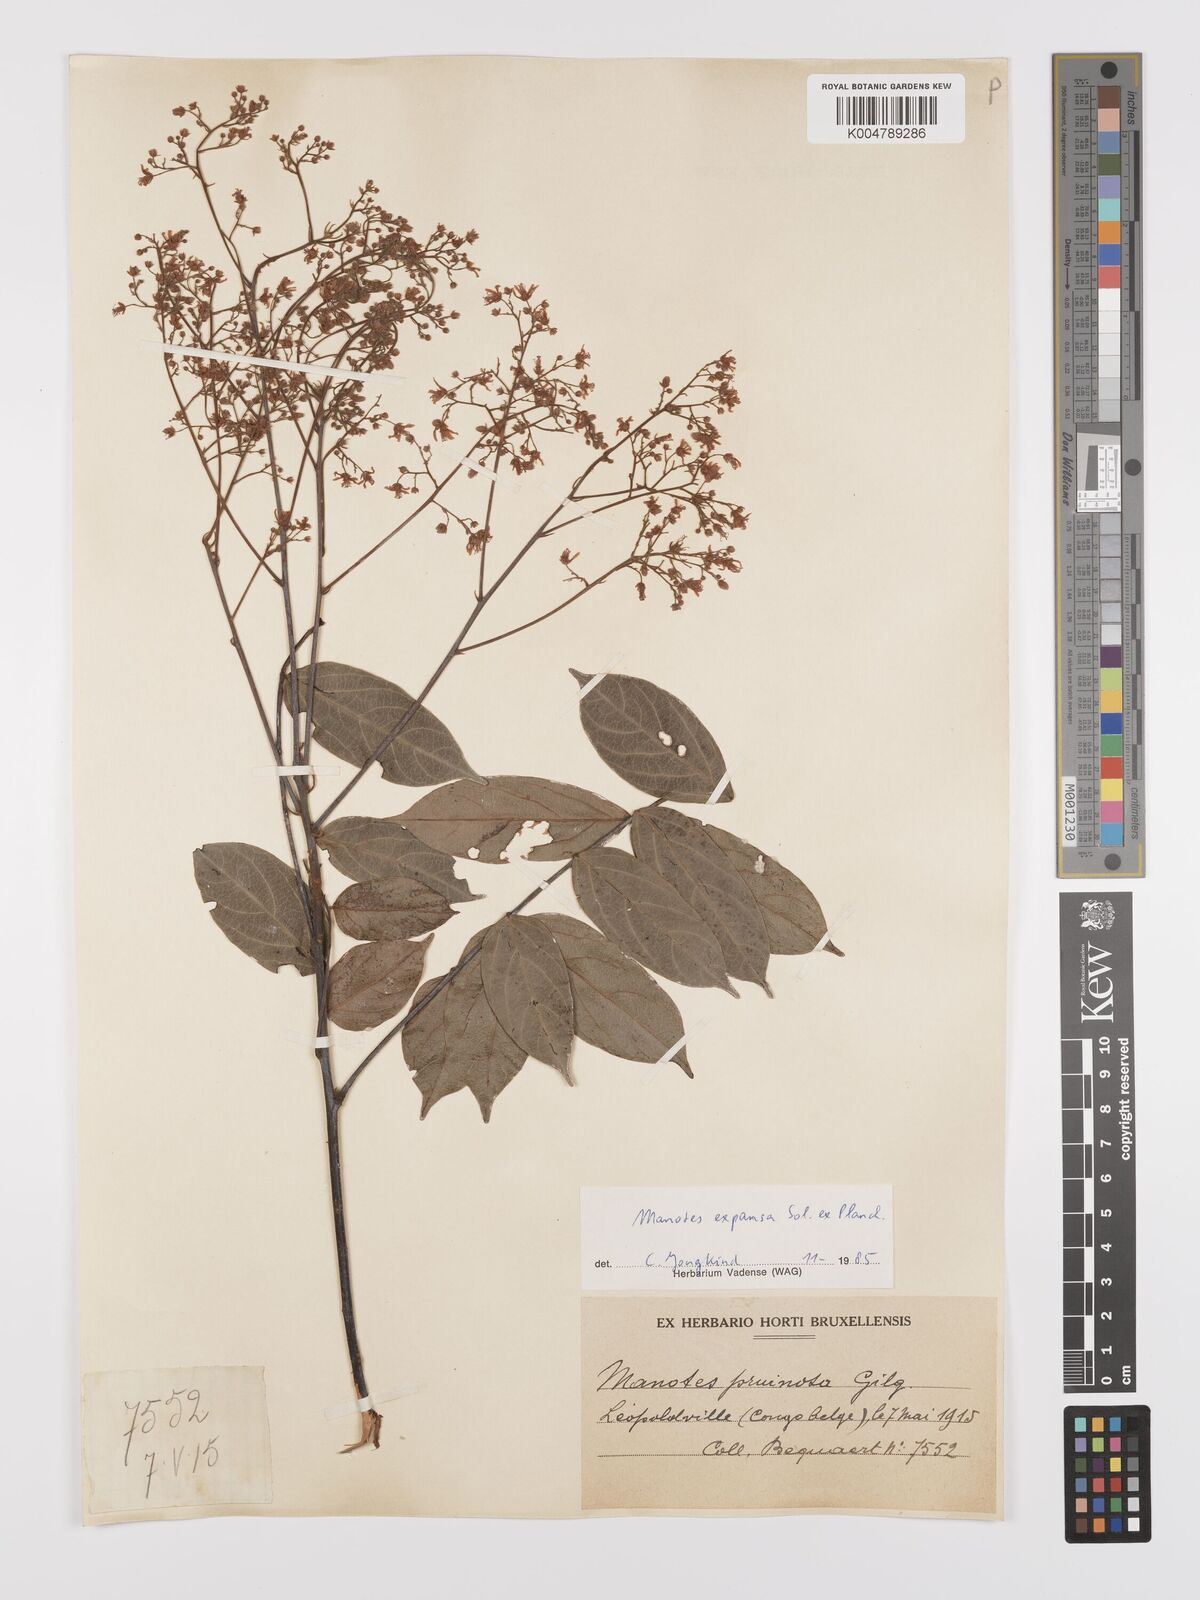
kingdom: Plantae
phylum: Tracheophyta
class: Magnoliopsida
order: Oxalidales
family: Connaraceae
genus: Manotes
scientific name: Manotes expansa
